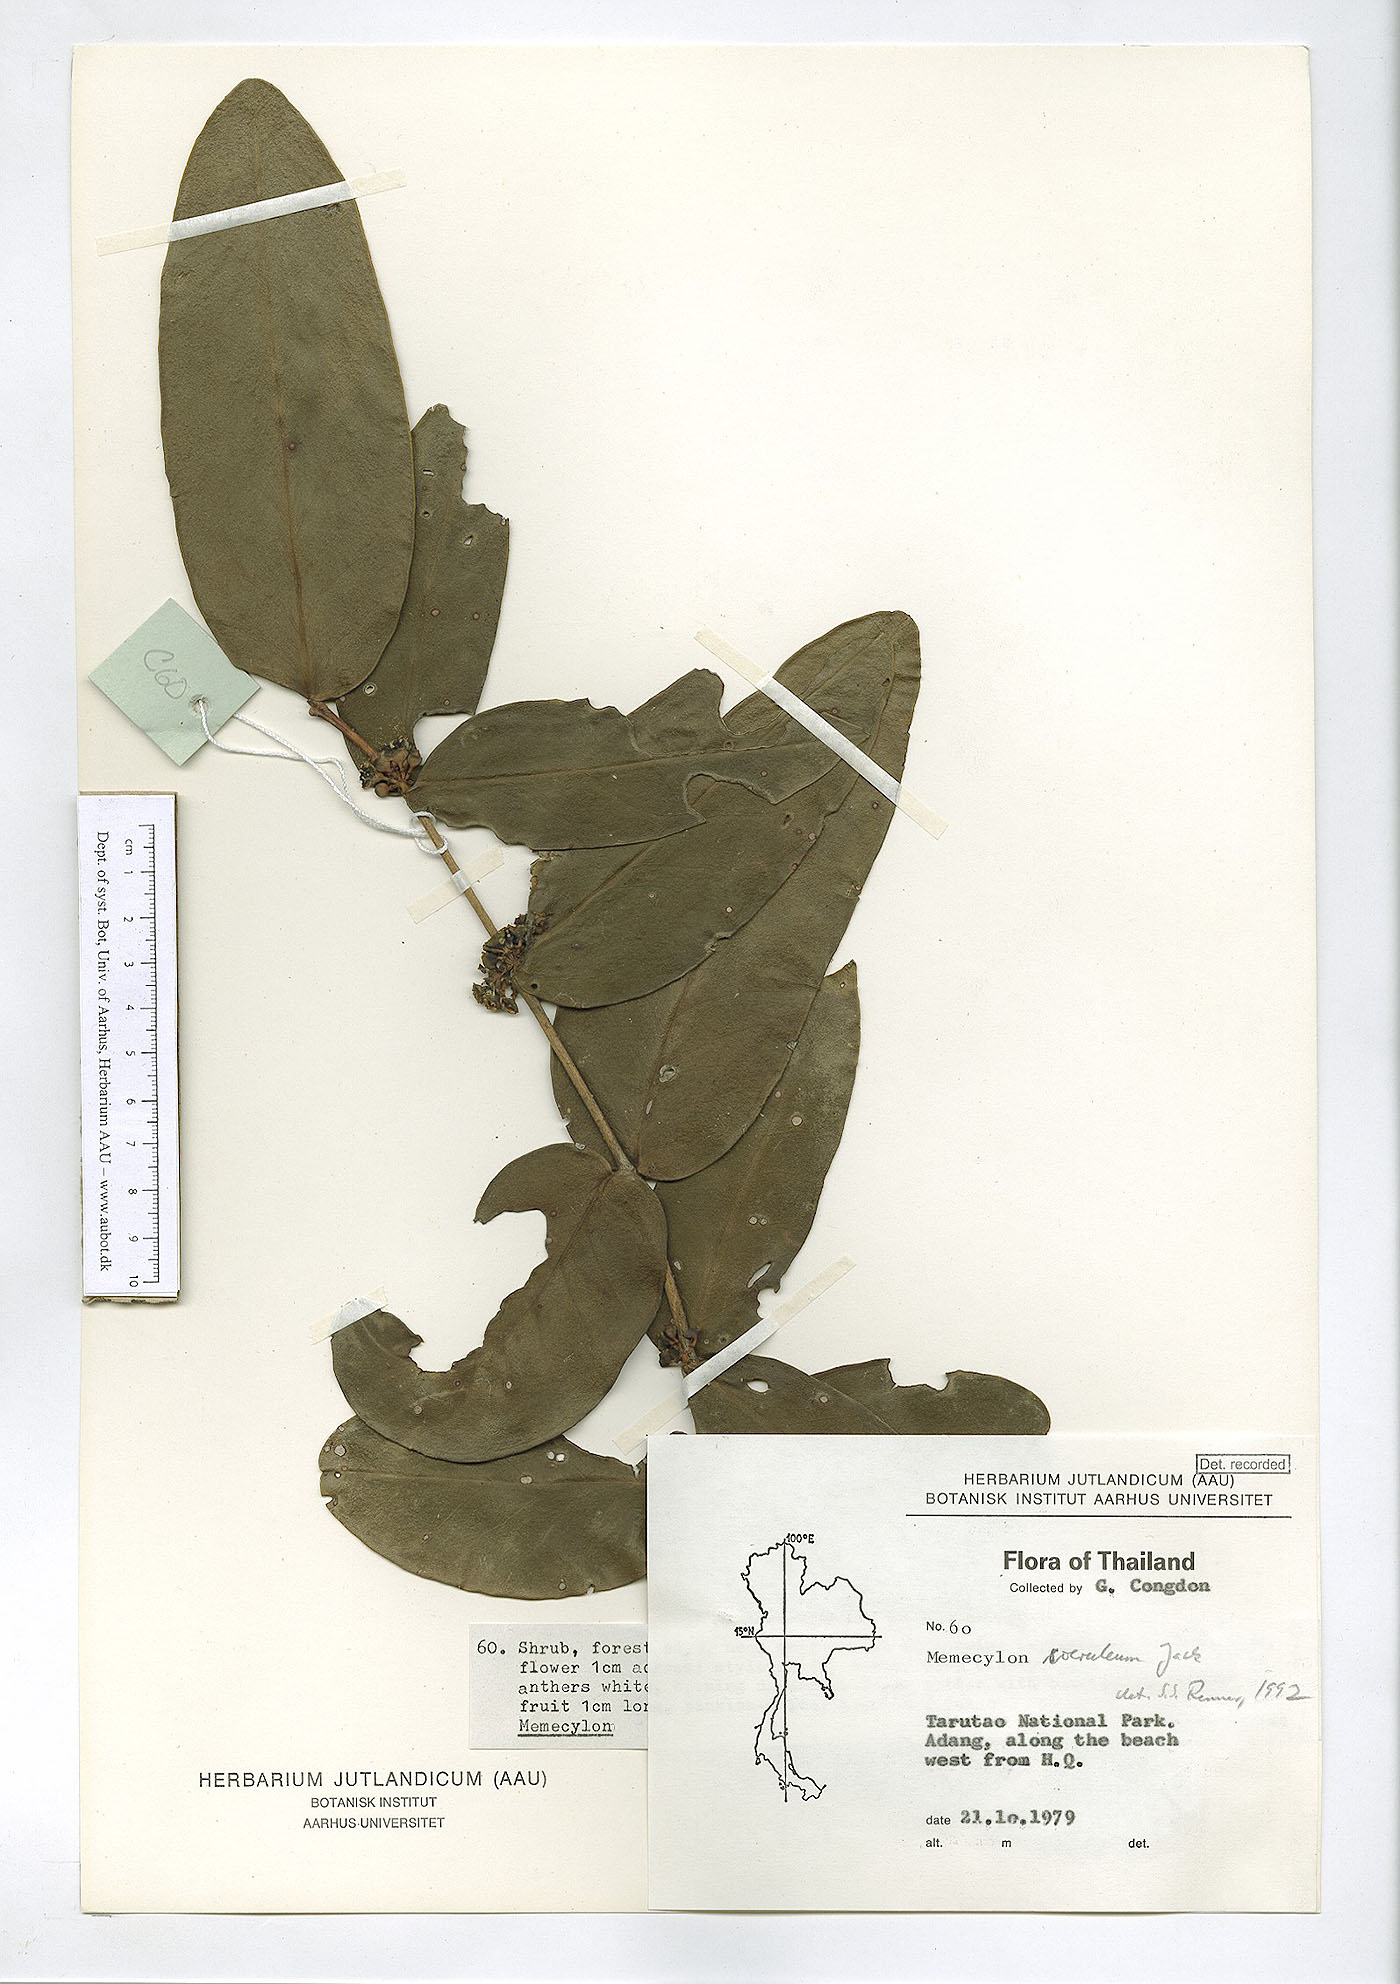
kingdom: Plantae
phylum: Tracheophyta
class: Magnoliopsida
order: Myrtales
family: Melastomataceae
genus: Memecylon
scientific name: Memecylon caeruleum
